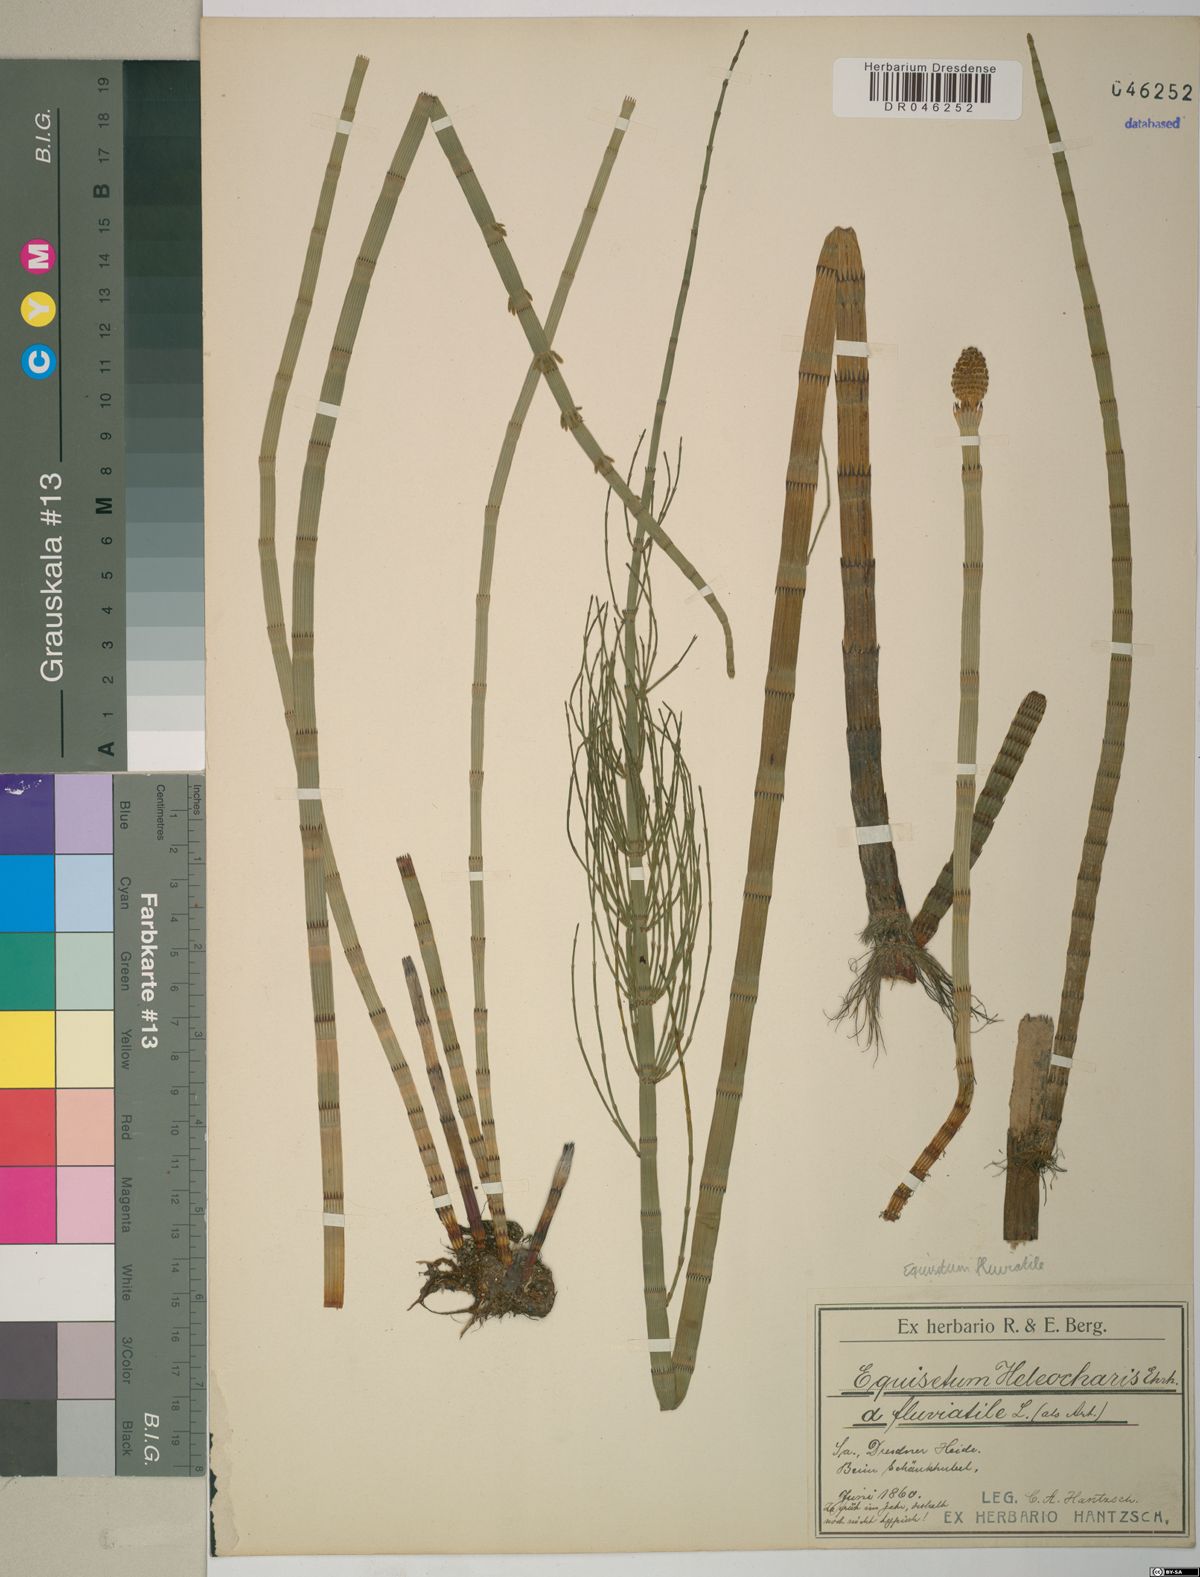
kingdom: Plantae
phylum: Tracheophyta
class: Polypodiopsida
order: Equisetales
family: Equisetaceae
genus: Equisetum
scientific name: Equisetum fluviatile
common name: Water horsetail
